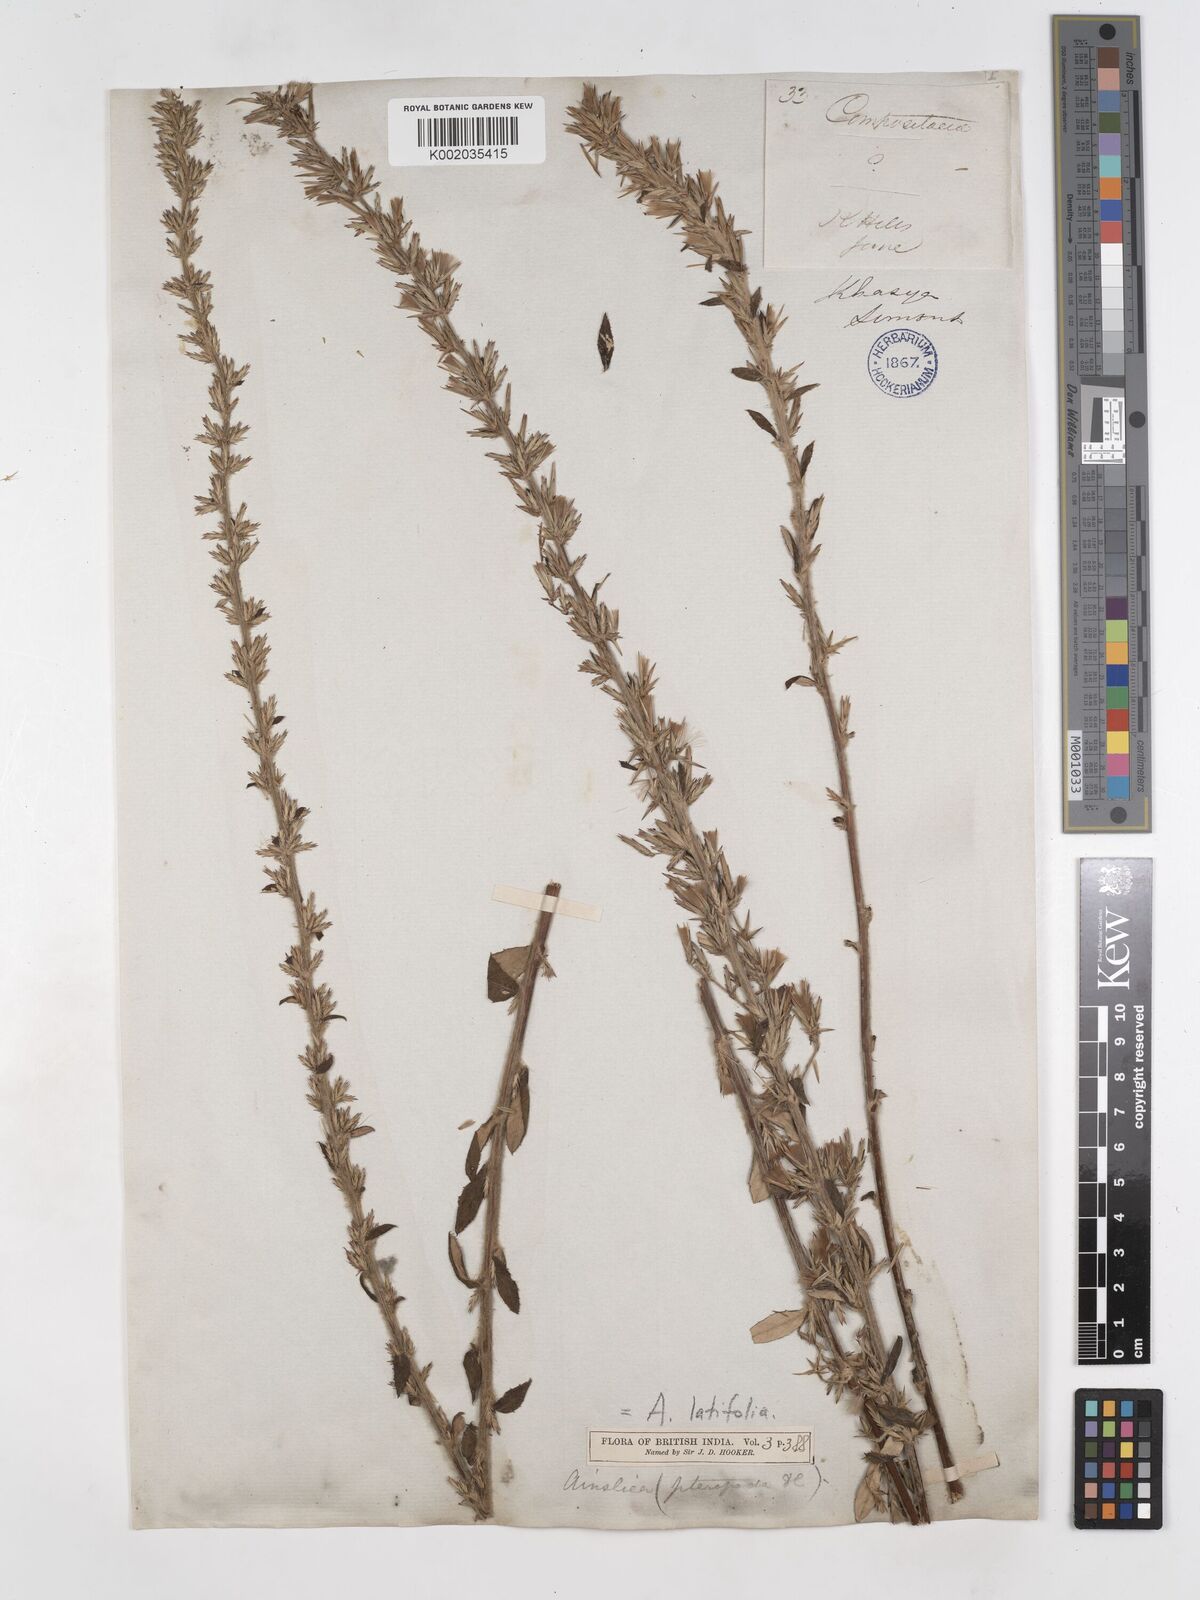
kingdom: Plantae
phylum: Tracheophyta
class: Magnoliopsida
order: Asterales
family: Asteraceae
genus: Ainsliaea
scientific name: Ainsliaea latifolia
